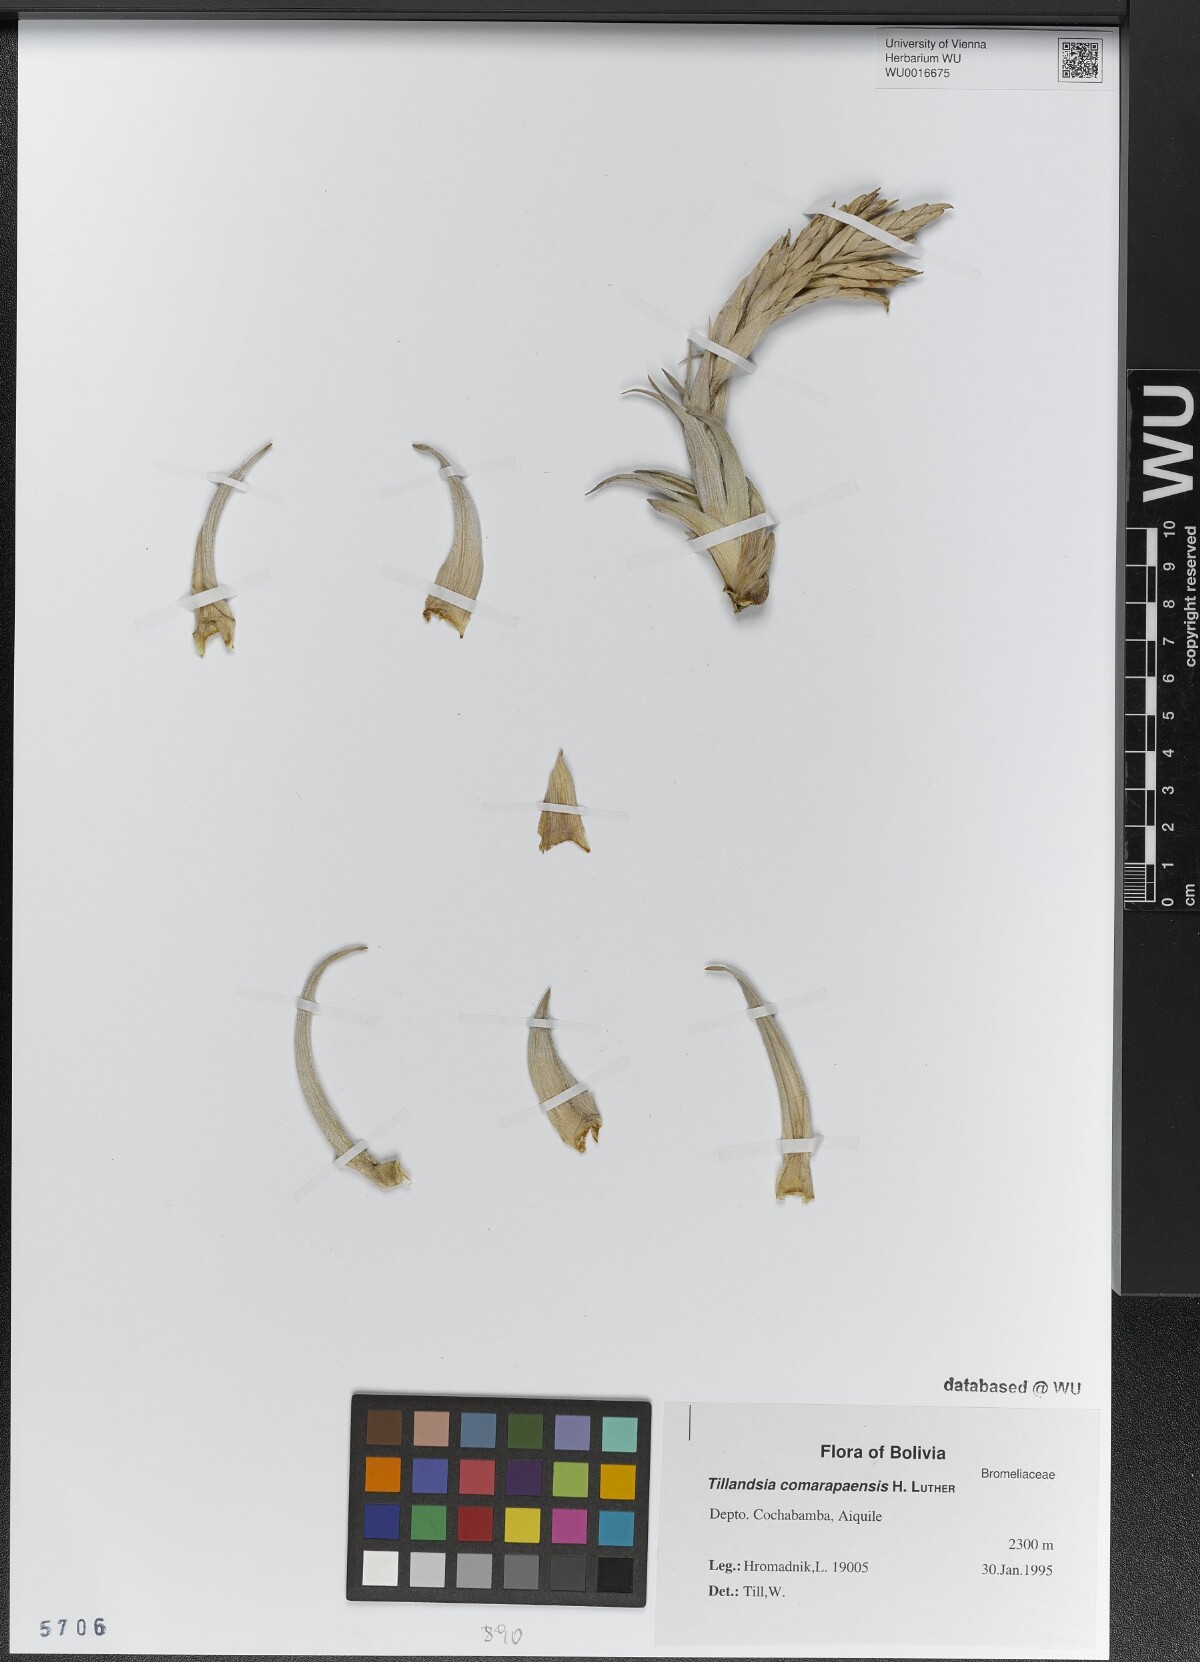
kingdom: Plantae
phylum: Tracheophyta
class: Liliopsida
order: Poales
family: Bromeliaceae
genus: Tillandsia
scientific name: Tillandsia comarapaensis
